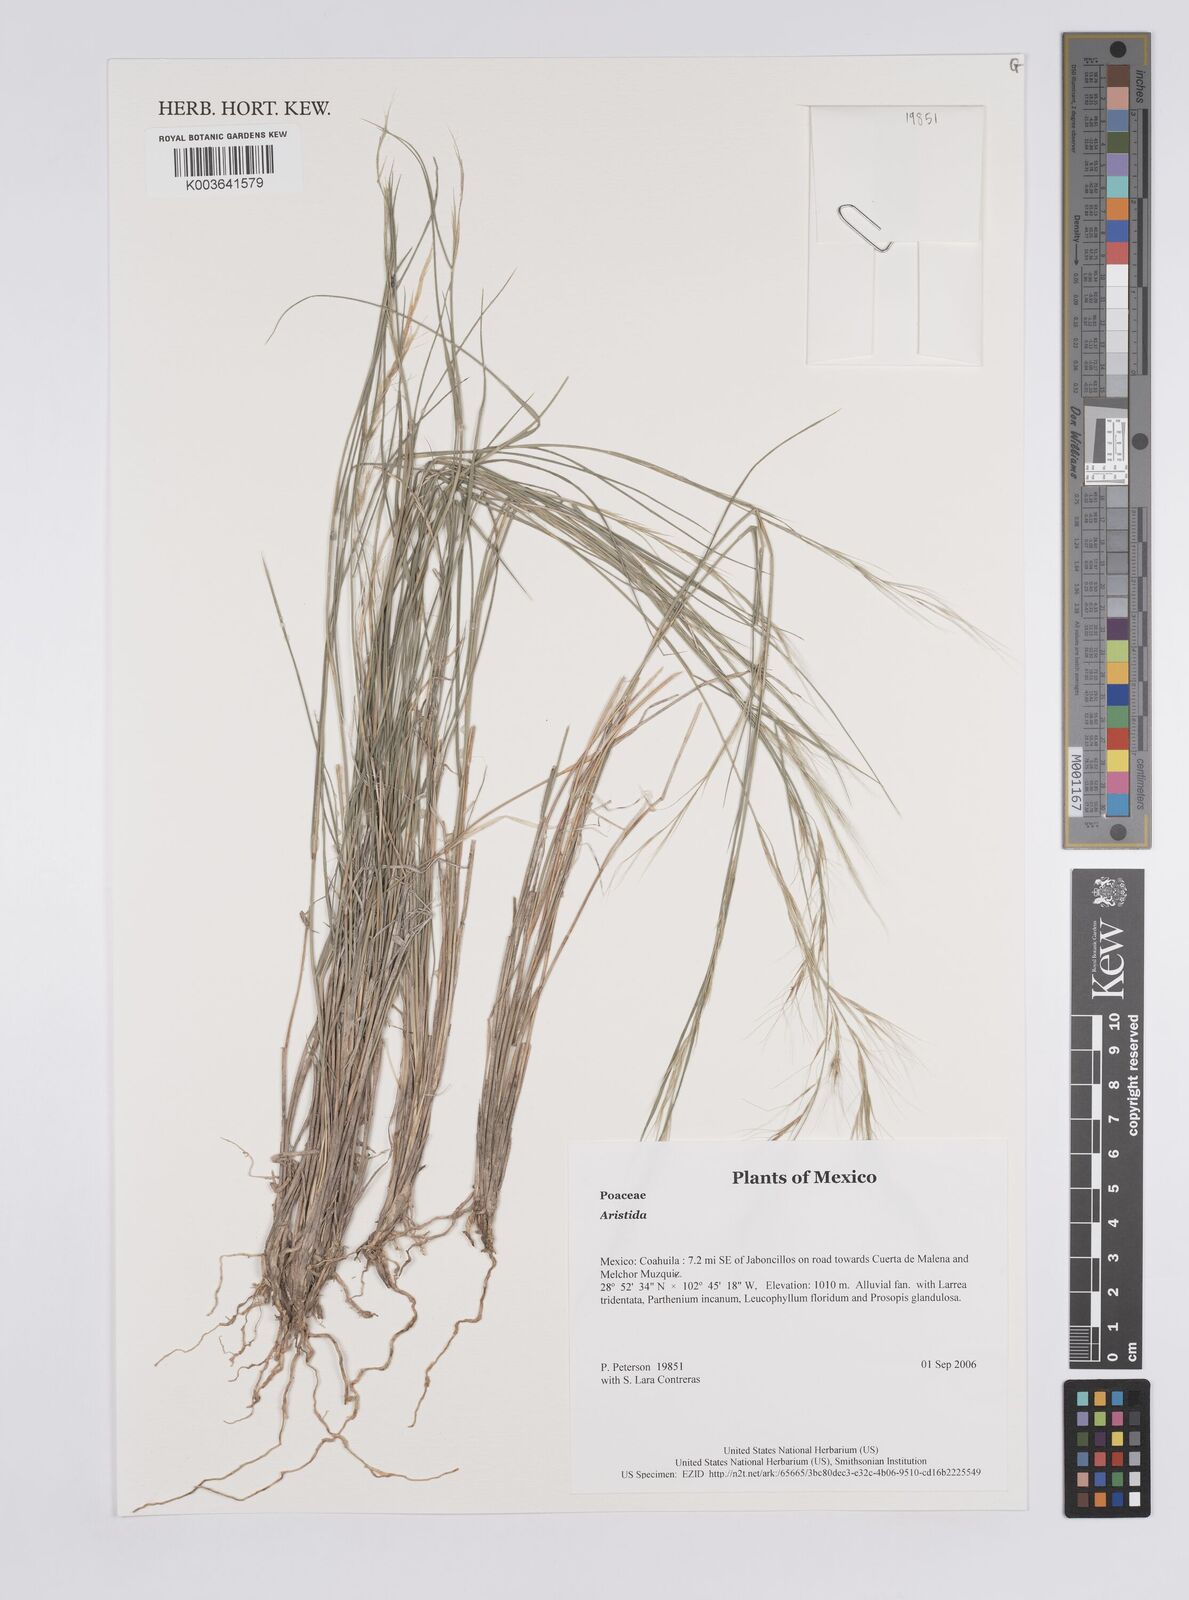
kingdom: Plantae
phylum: Tracheophyta
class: Liliopsida
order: Poales
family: Poaceae
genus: Aristida
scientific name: Aristida
